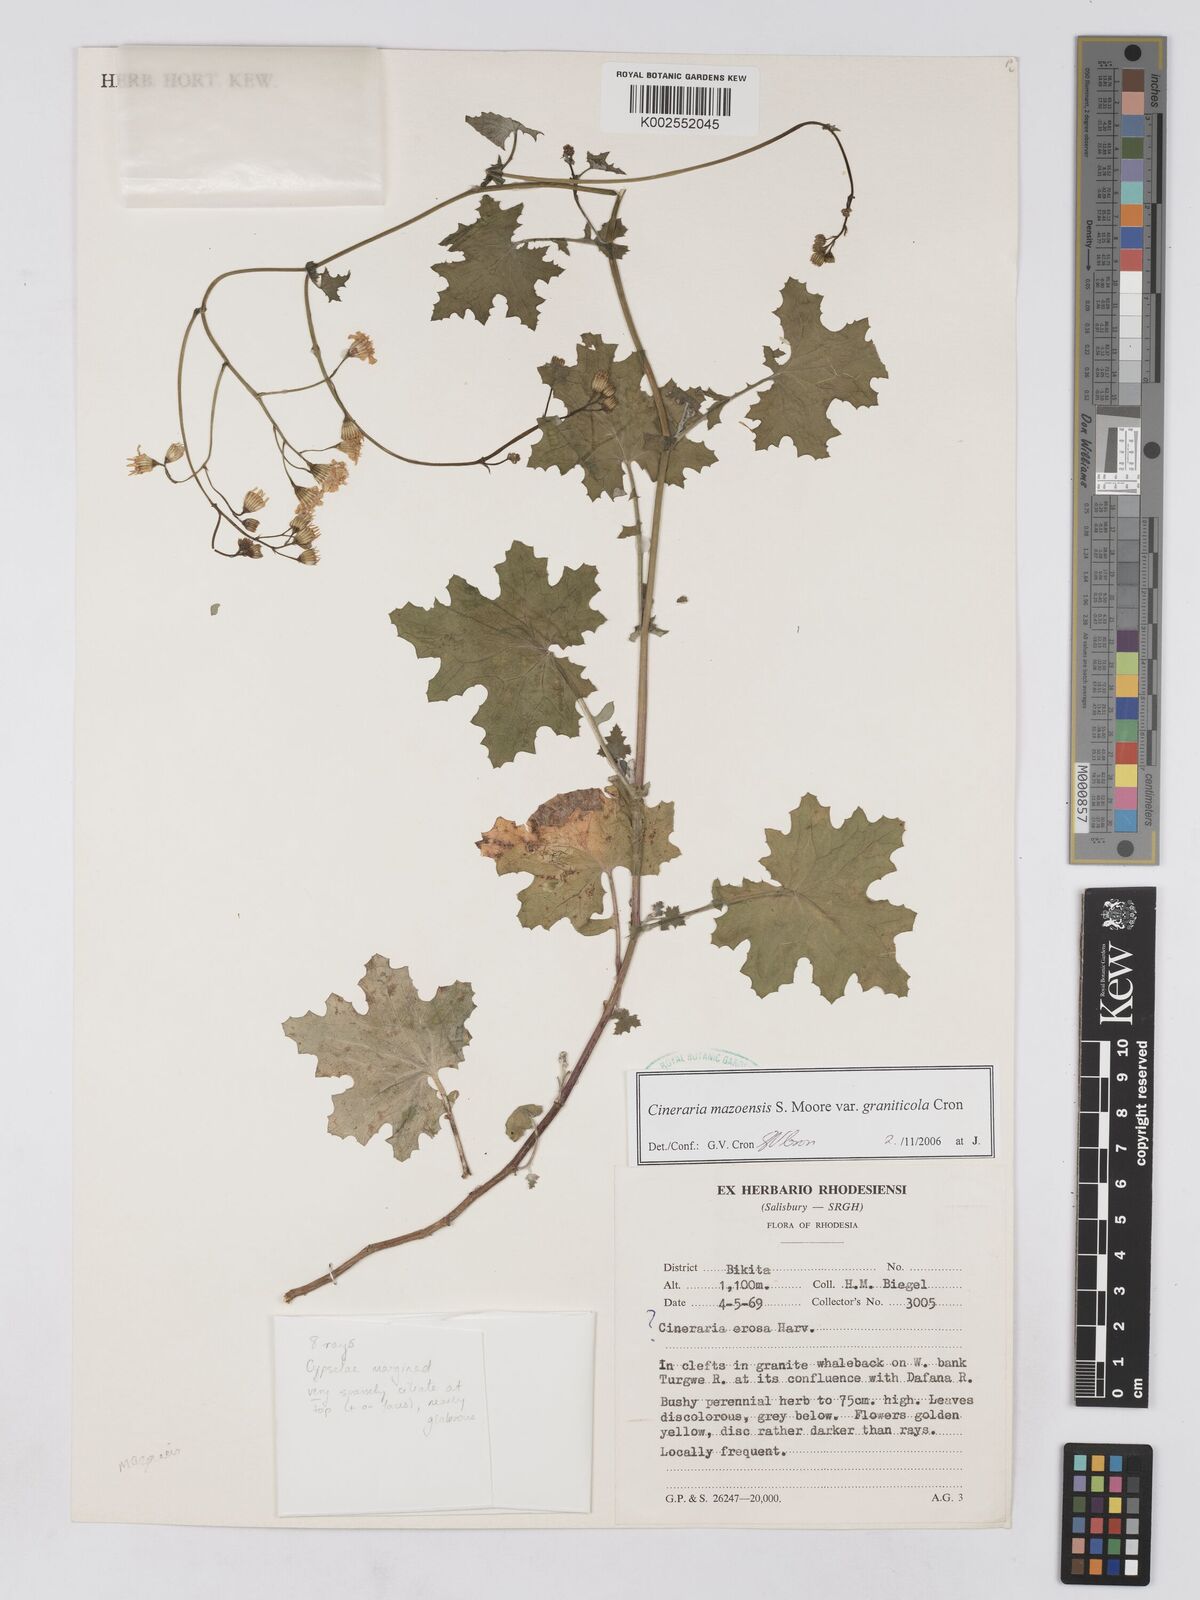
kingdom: Plantae
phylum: Tracheophyta
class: Magnoliopsida
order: Asterales
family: Asteraceae
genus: Cineraria
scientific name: Cineraria mazoensis
